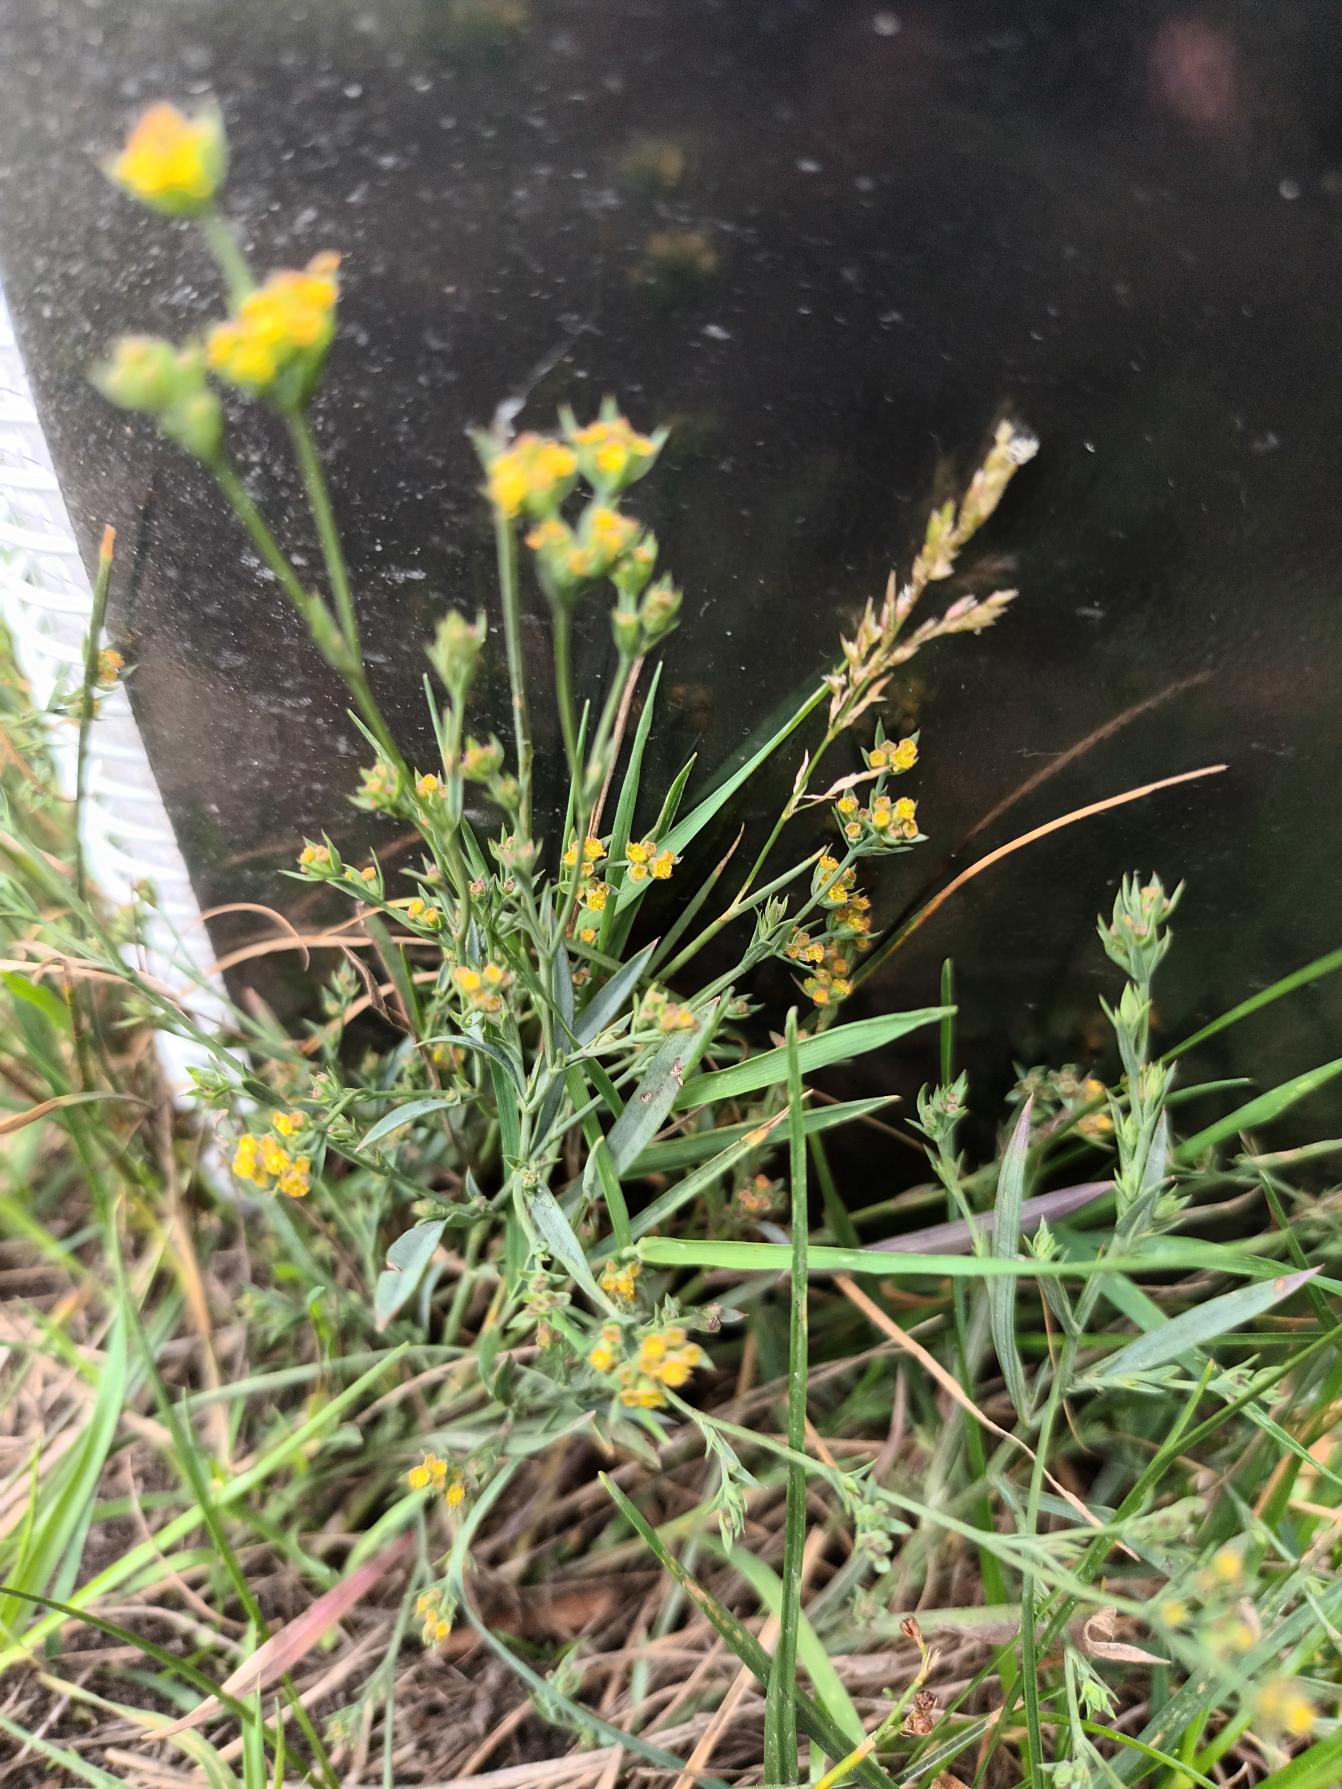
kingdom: Plantae
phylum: Tracheophyta
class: Magnoliopsida
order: Apiales
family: Apiaceae
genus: Bupleurum
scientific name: Bupleurum tenuissimum
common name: Smalbladet hareøre
